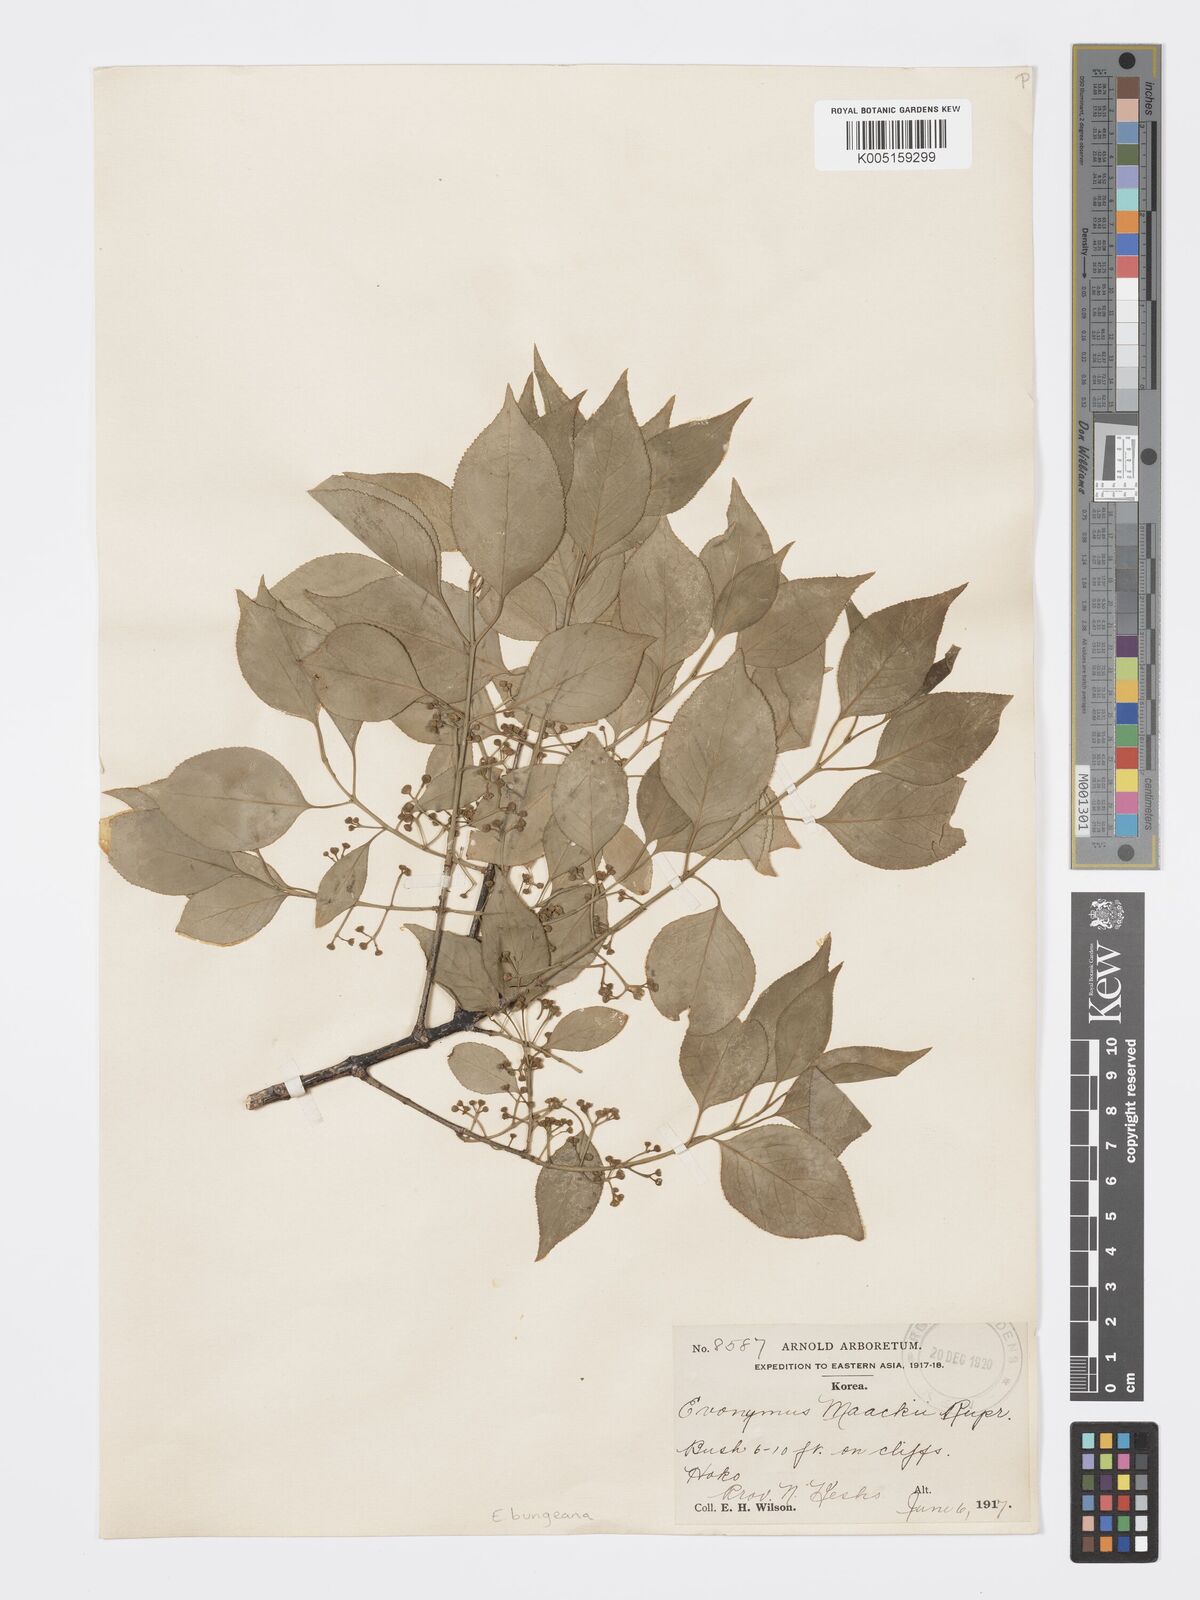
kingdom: Plantae
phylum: Tracheophyta
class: Magnoliopsida
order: Celastrales
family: Celastraceae
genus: Euonymus
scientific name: Euonymus maackii
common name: Hamilton's spindletree
